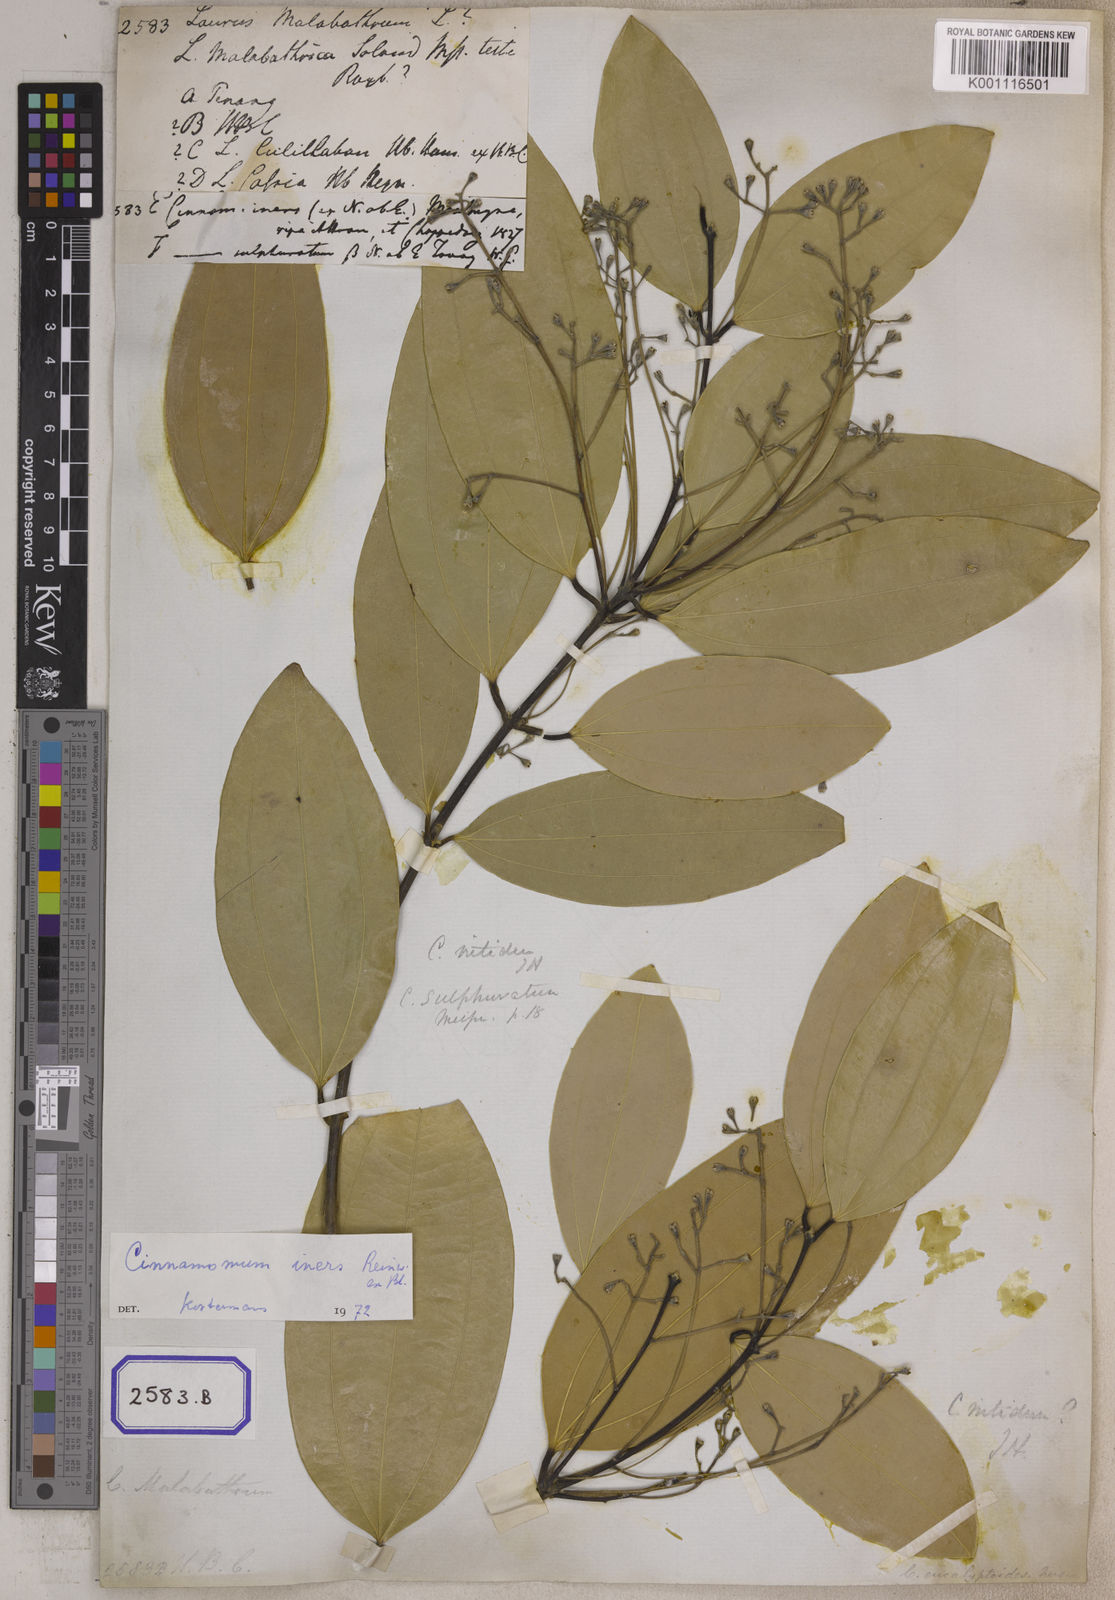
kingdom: Plantae
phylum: Tracheophyta
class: Magnoliopsida
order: Laurales
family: Lauraceae
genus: Cinnamomum
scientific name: Cinnamomum
